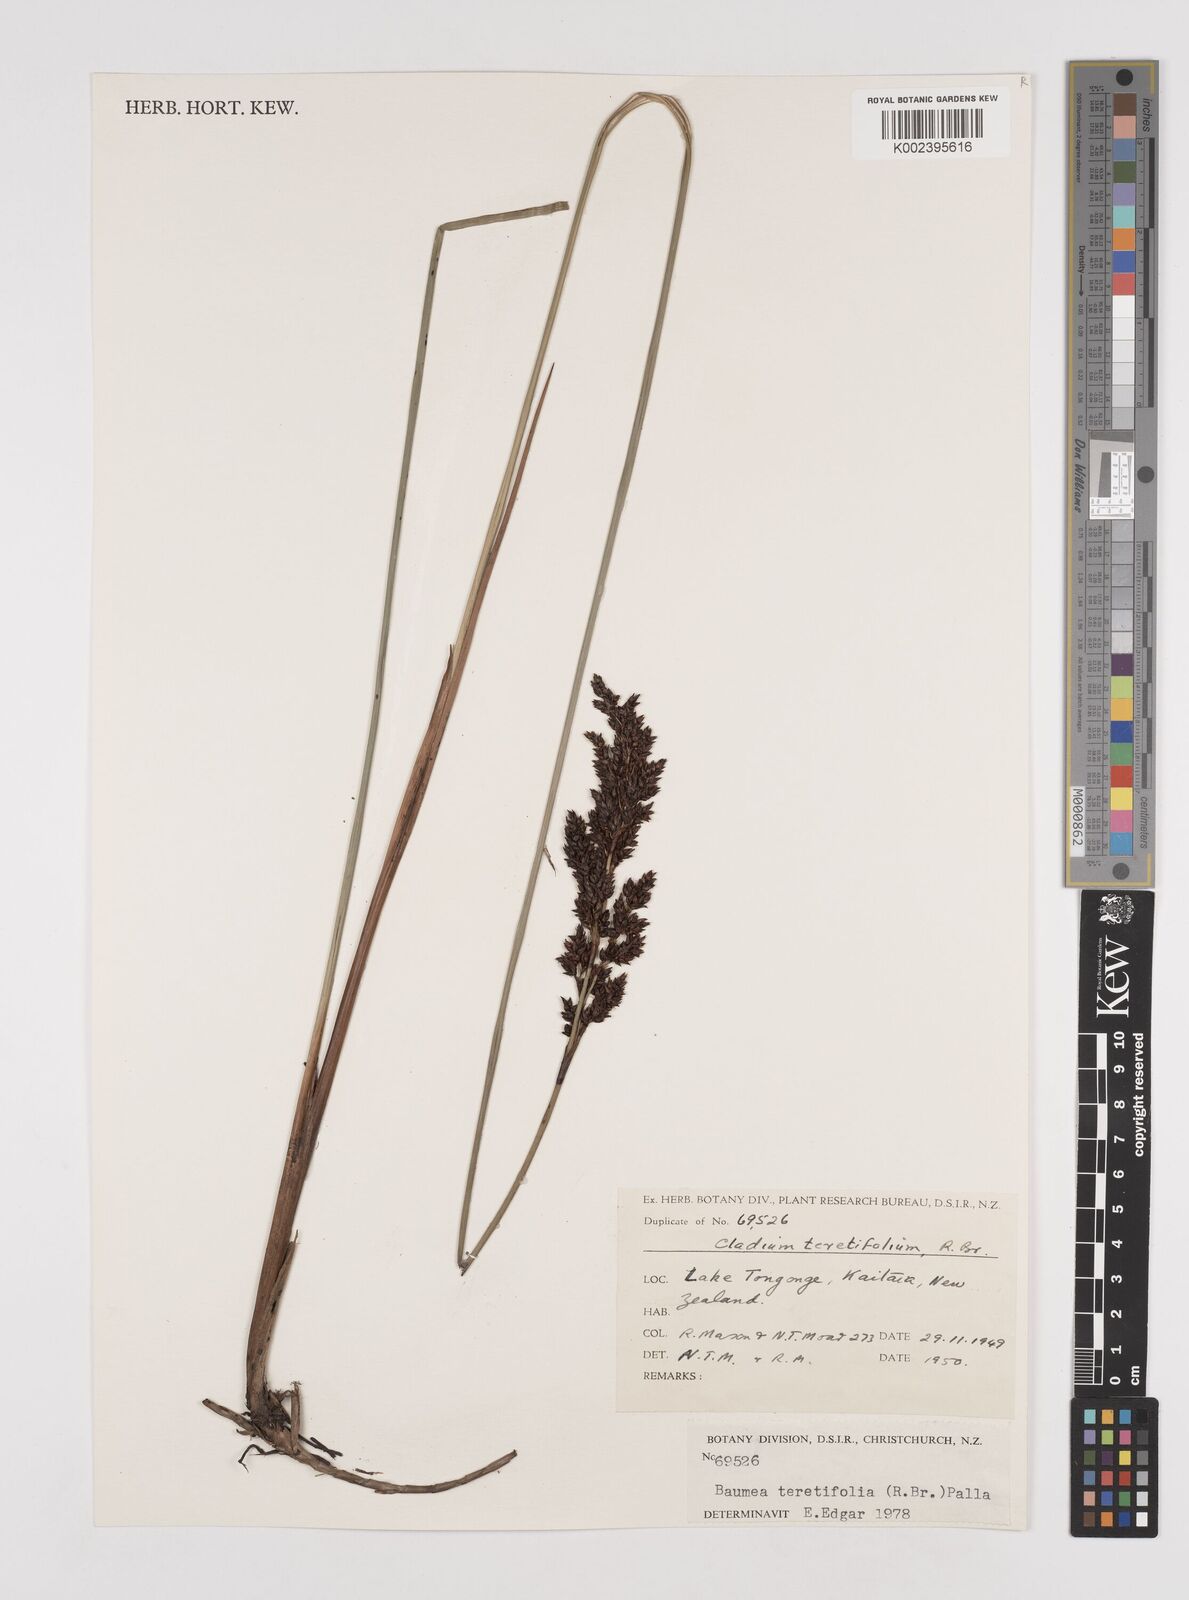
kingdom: Plantae
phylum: Tracheophyta
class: Liliopsida
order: Poales
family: Cyperaceae
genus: Machaerina
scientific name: Machaerina teretifolia
